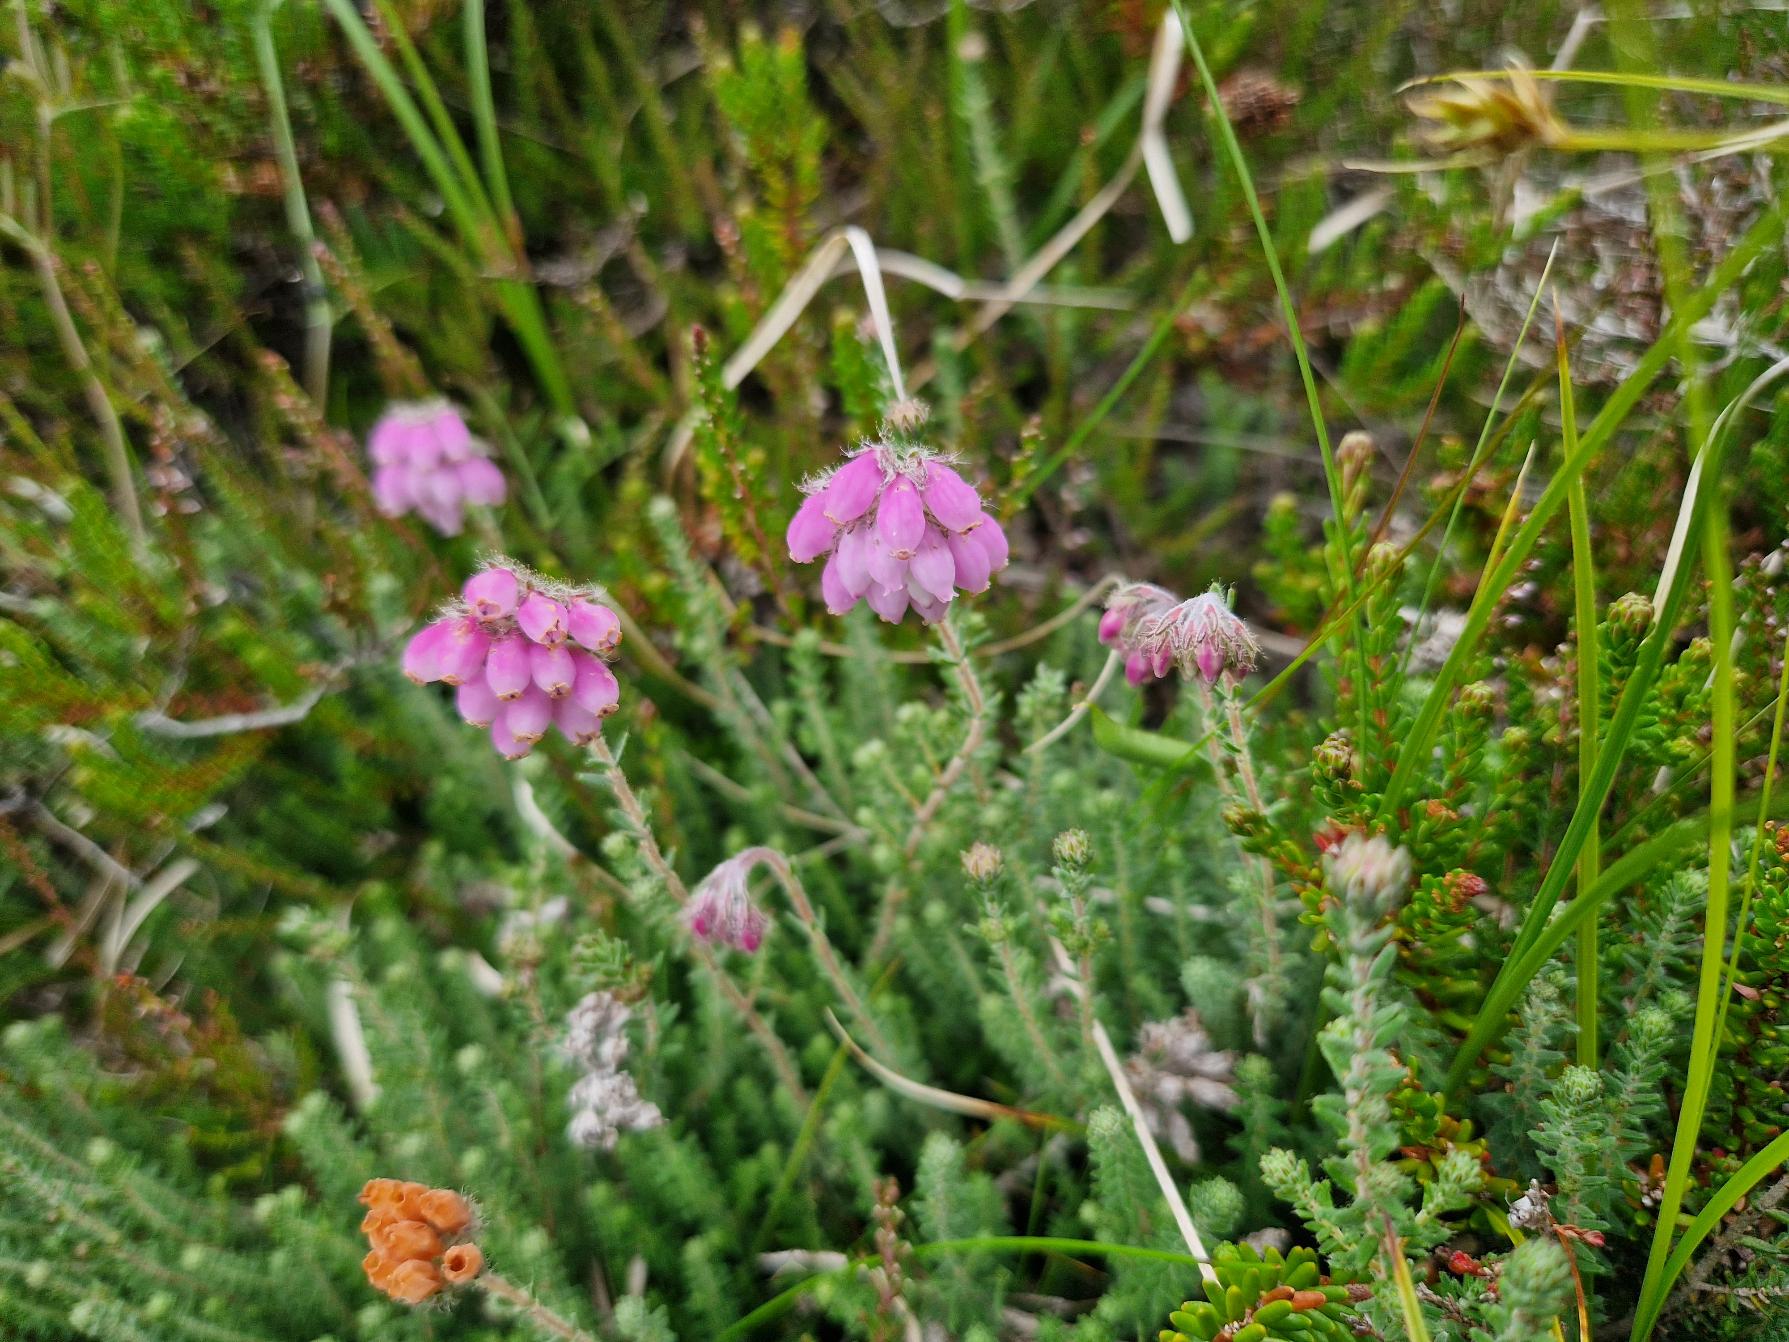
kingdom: Plantae
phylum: Tracheophyta
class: Magnoliopsida
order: Ericales
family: Ericaceae
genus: Erica
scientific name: Erica tetralix
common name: Klokkelyng
